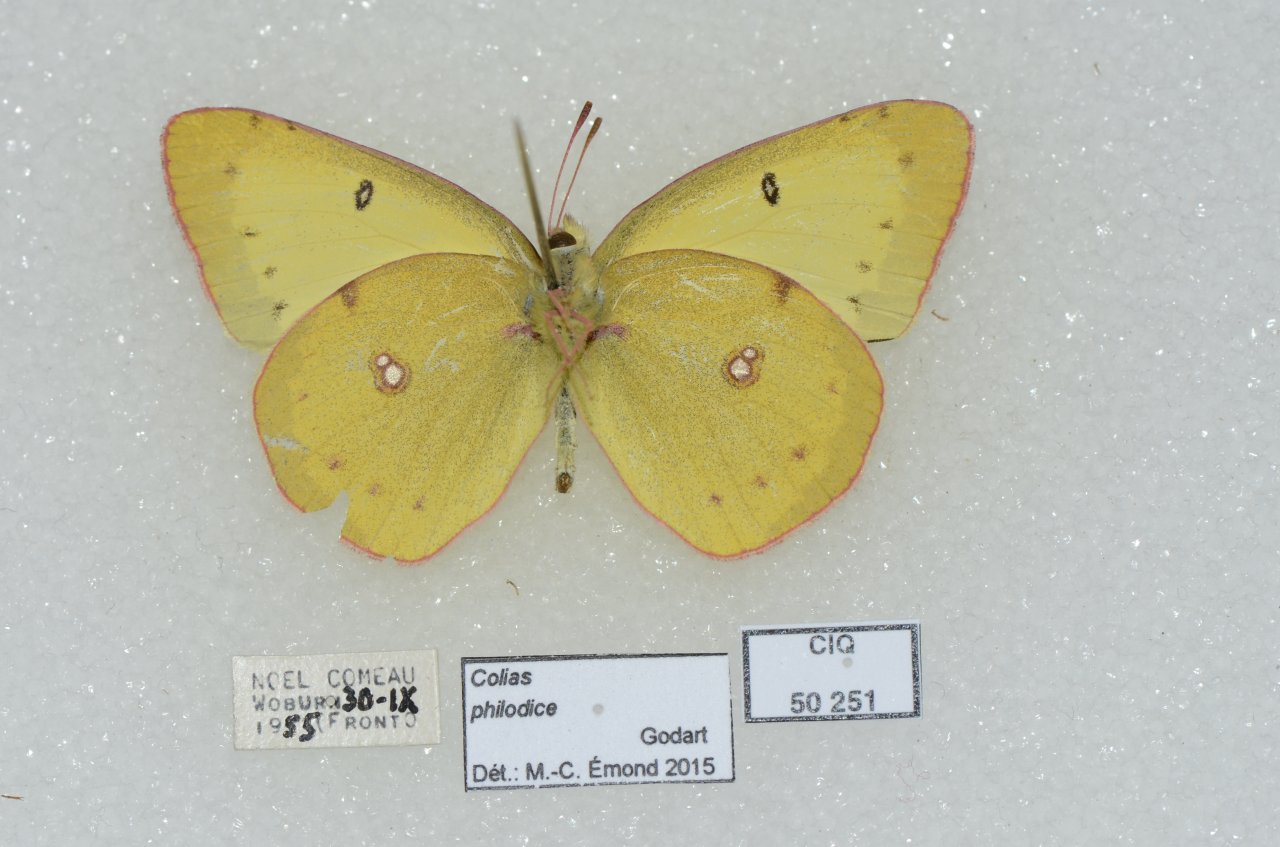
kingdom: Animalia
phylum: Arthropoda
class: Insecta
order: Lepidoptera
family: Pieridae
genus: Colias
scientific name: Colias philodice
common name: Clouded Sulphur
